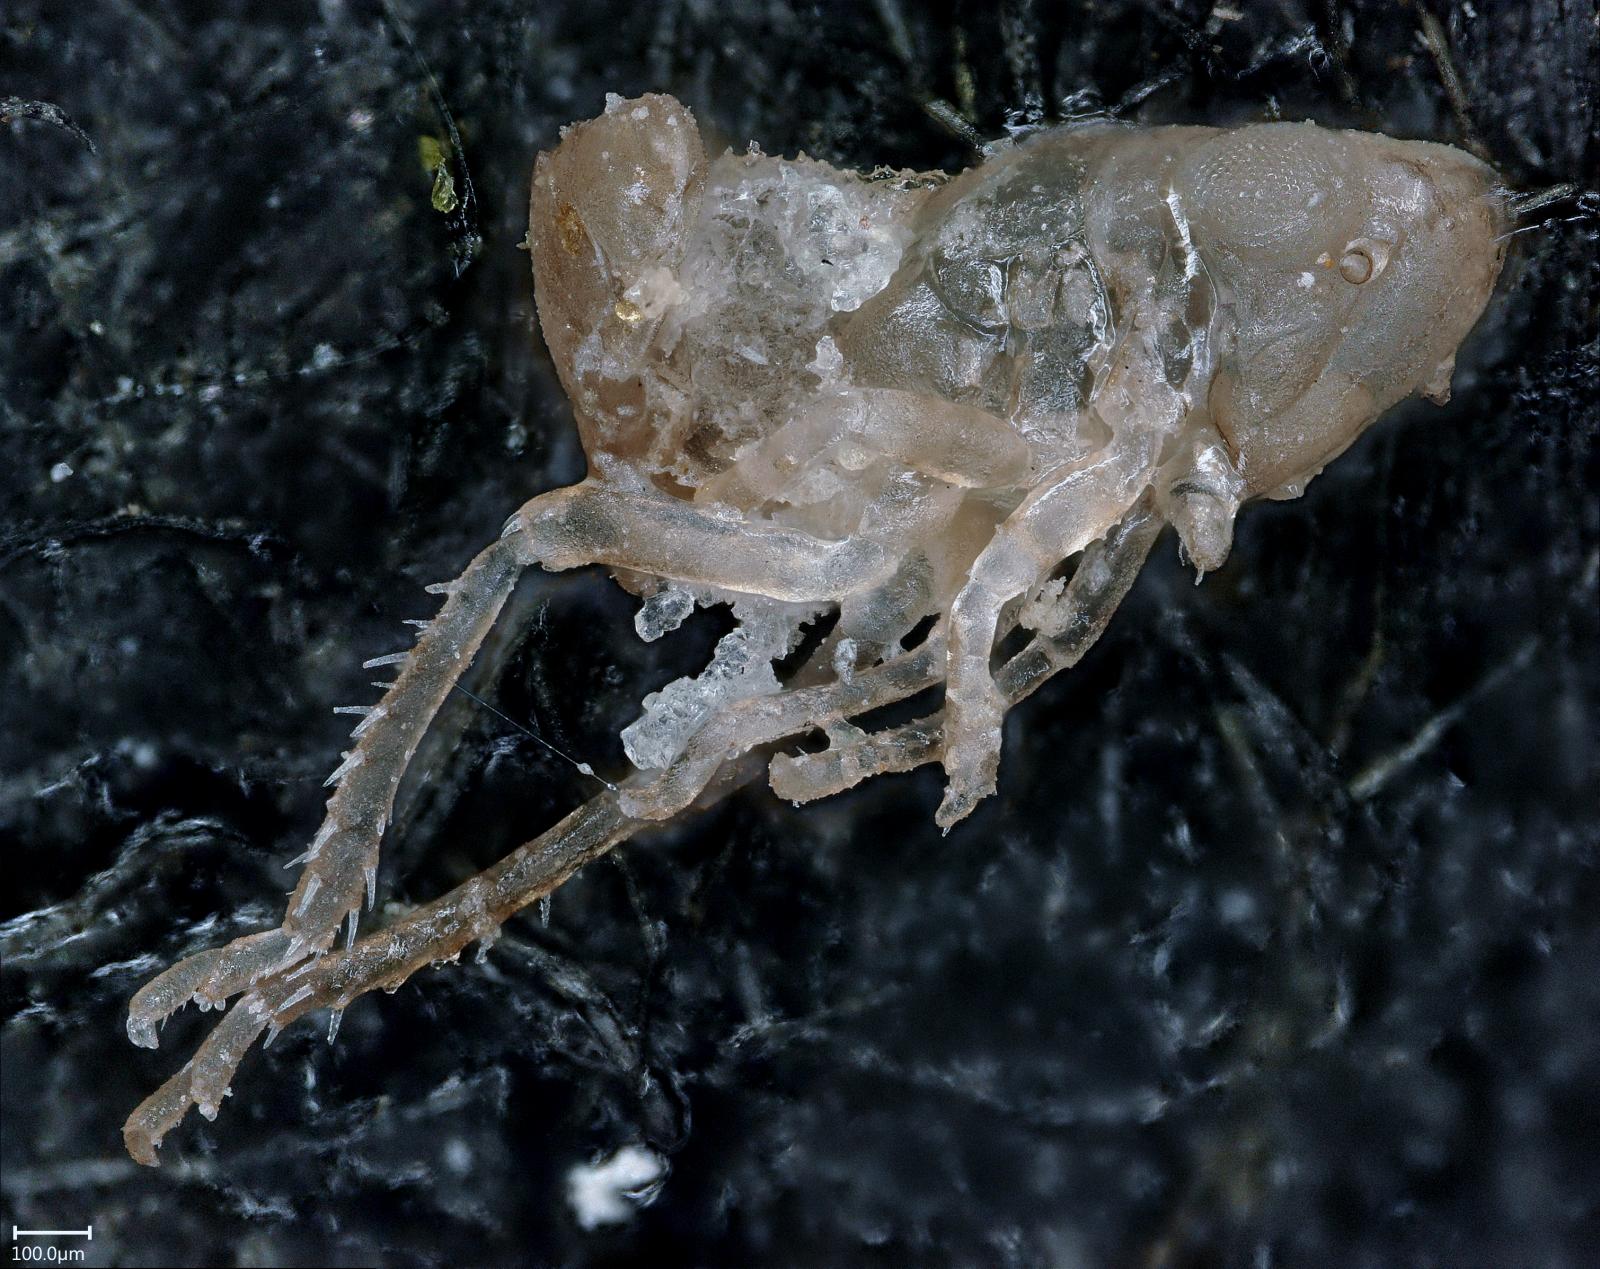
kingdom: Animalia
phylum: Arthropoda
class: Insecta
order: Hemiptera
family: Cicadellidae
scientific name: Cicadellidae
